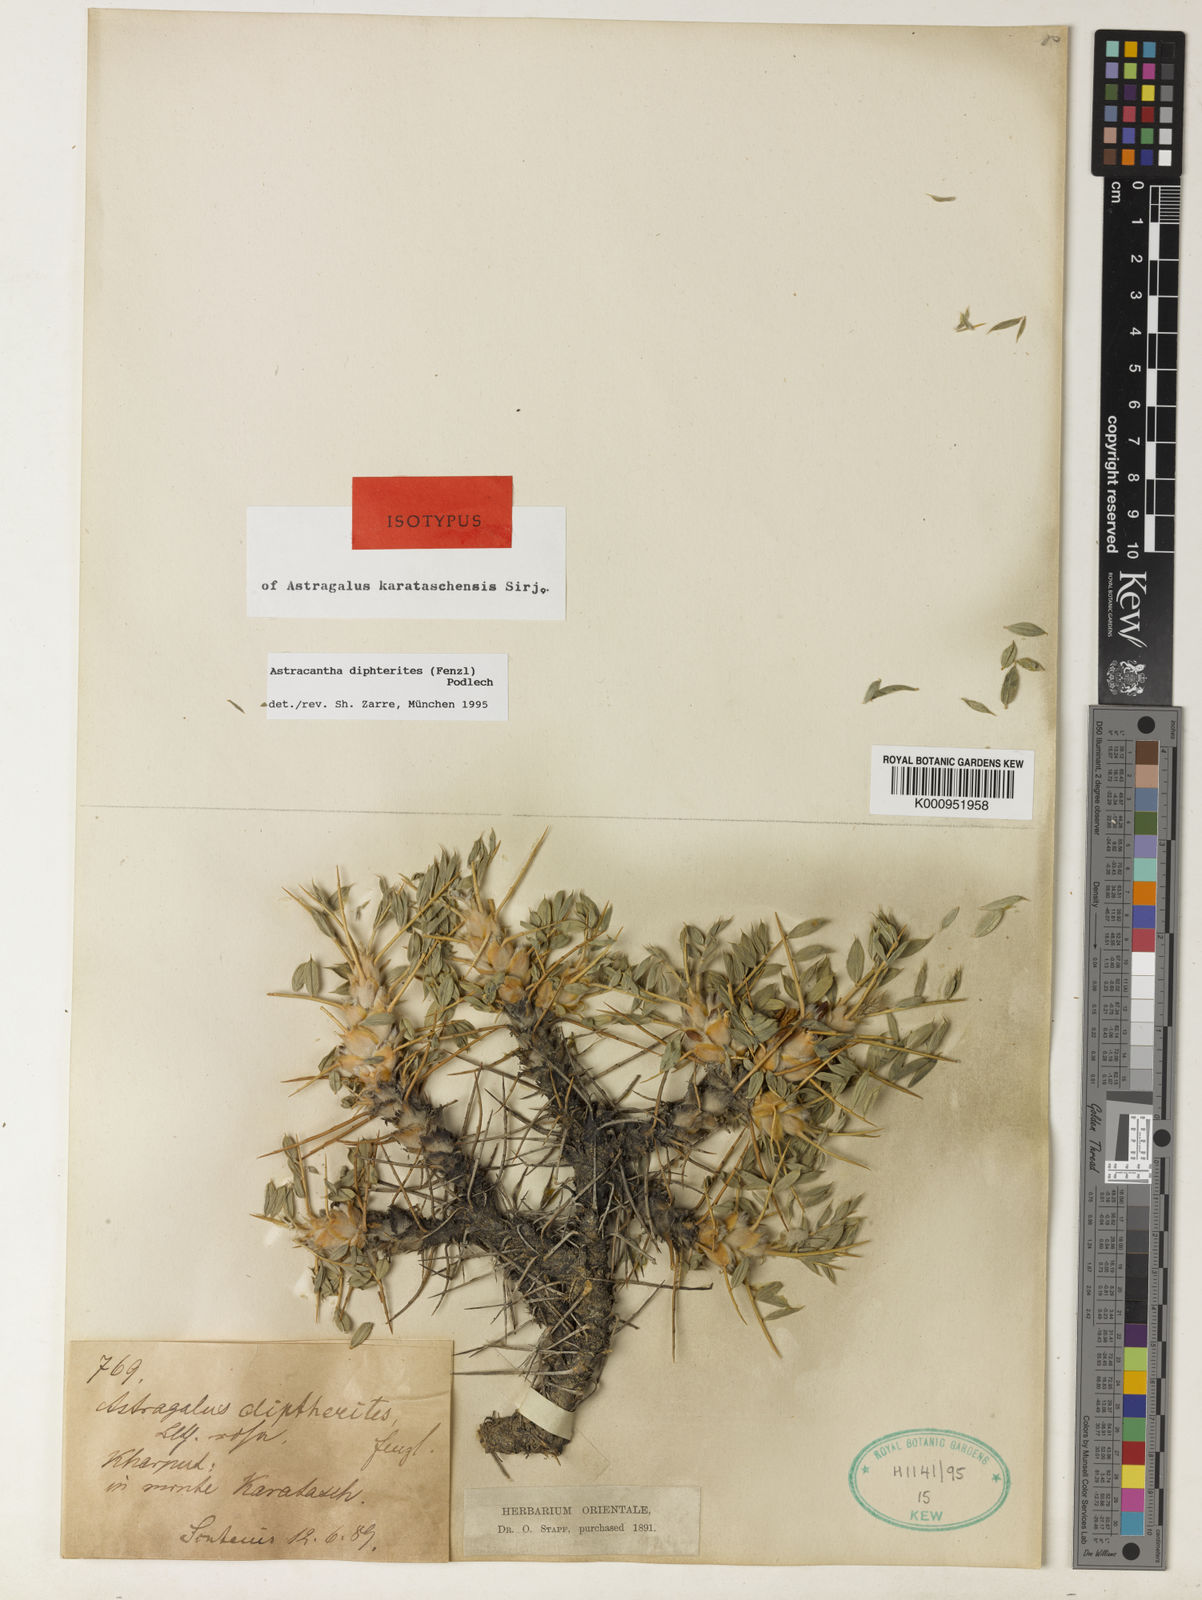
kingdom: Plantae
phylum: Tracheophyta
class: Magnoliopsida
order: Fabales
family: Fabaceae
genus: Astragalus
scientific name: Astragalus diphtherites
